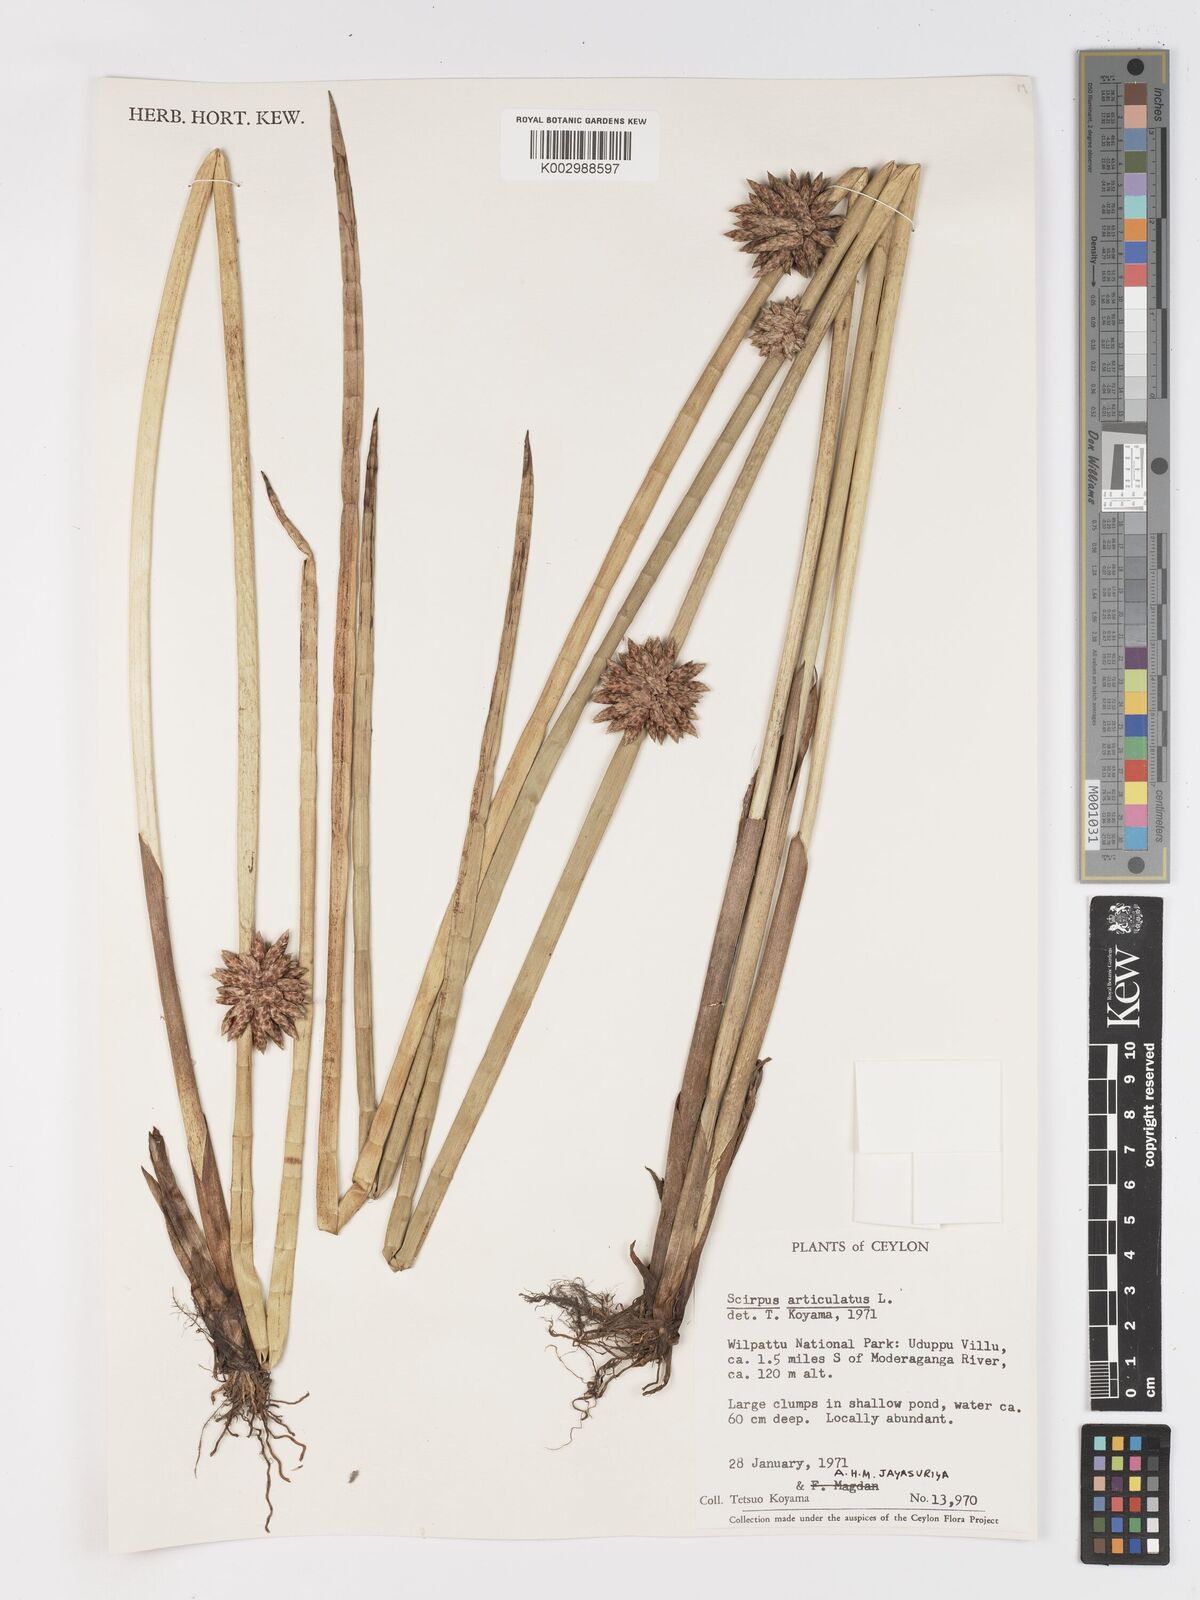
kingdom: Plantae
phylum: Tracheophyta
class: Liliopsida
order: Poales
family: Cyperaceae
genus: Schoenoplectiella
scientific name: Schoenoplectiella articulata
